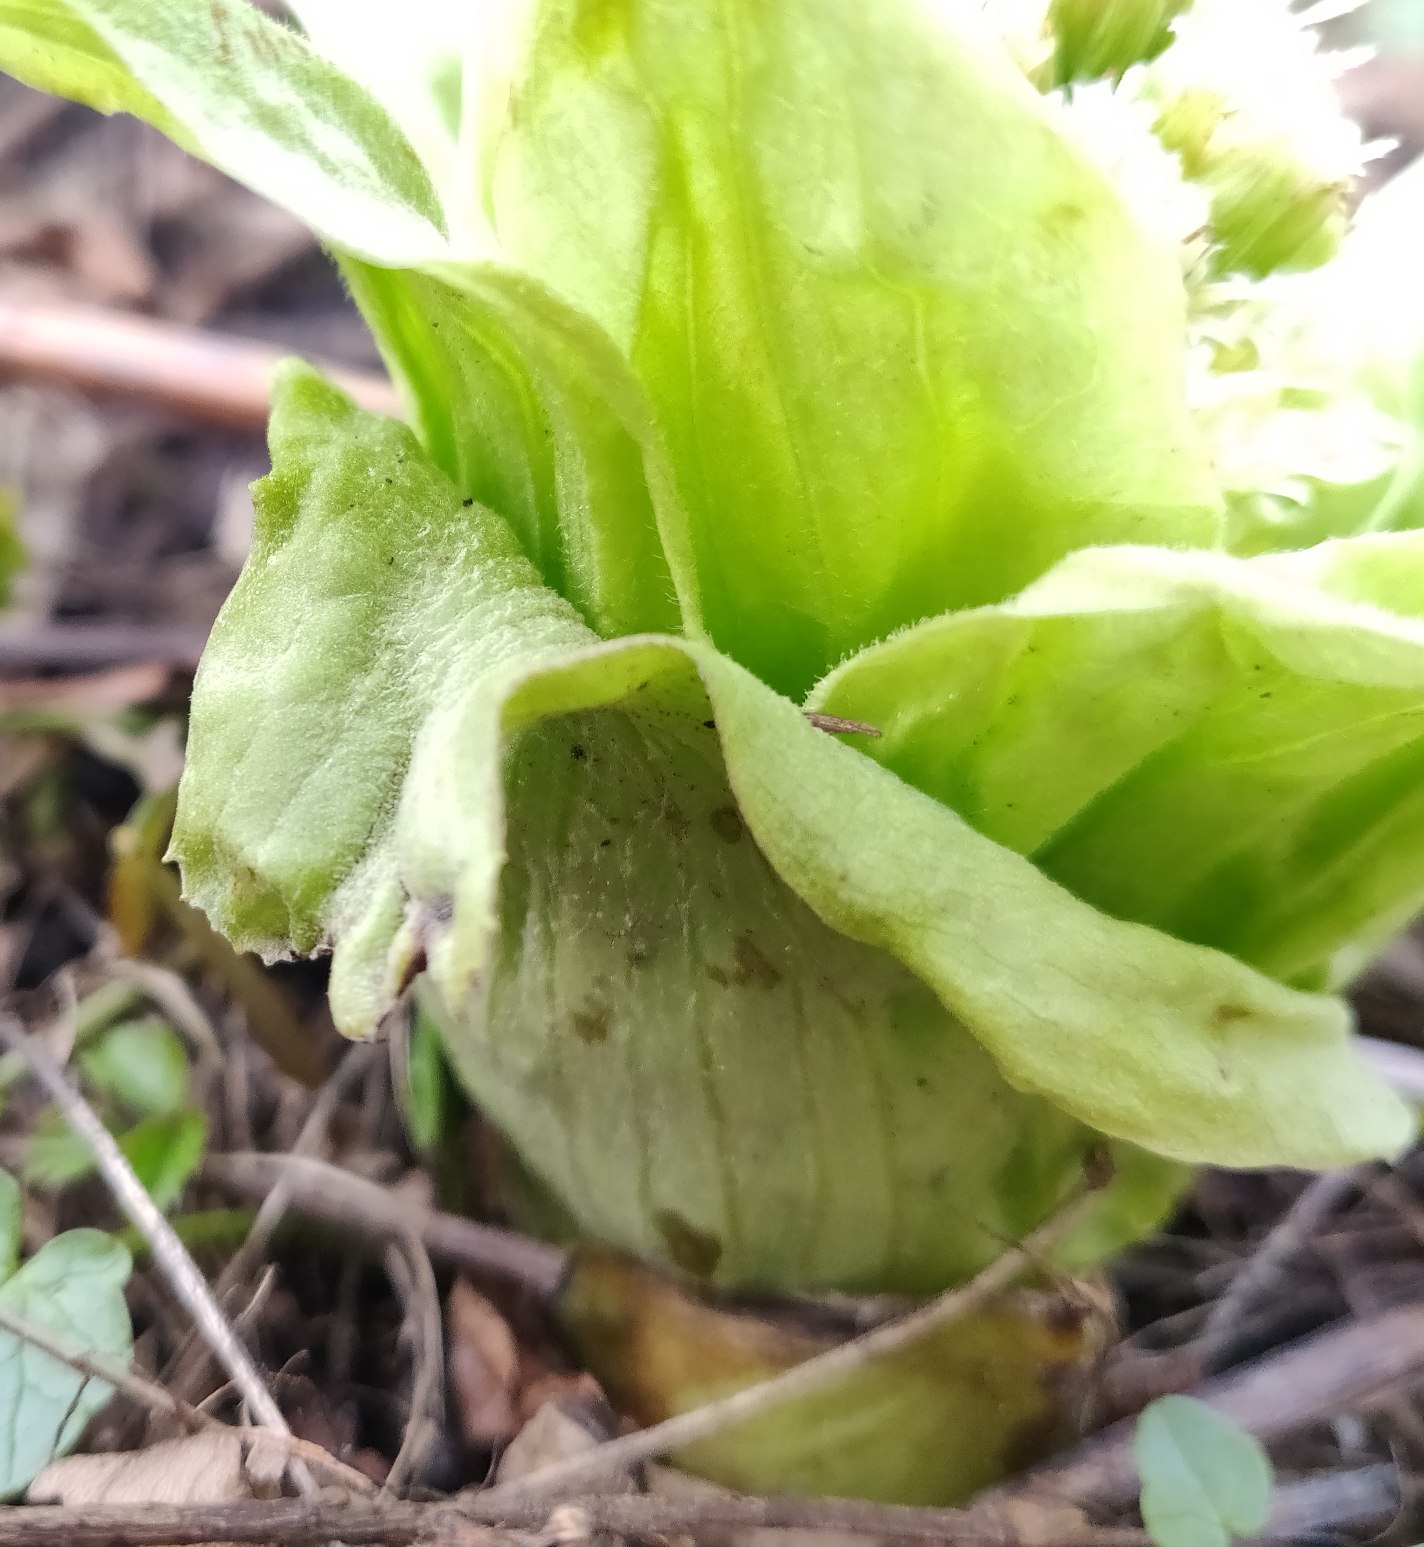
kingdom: Plantae
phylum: Tracheophyta
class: Magnoliopsida
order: Asterales
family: Asteraceae
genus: Petasites
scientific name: Petasites japonicus
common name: Japansk hestehov
